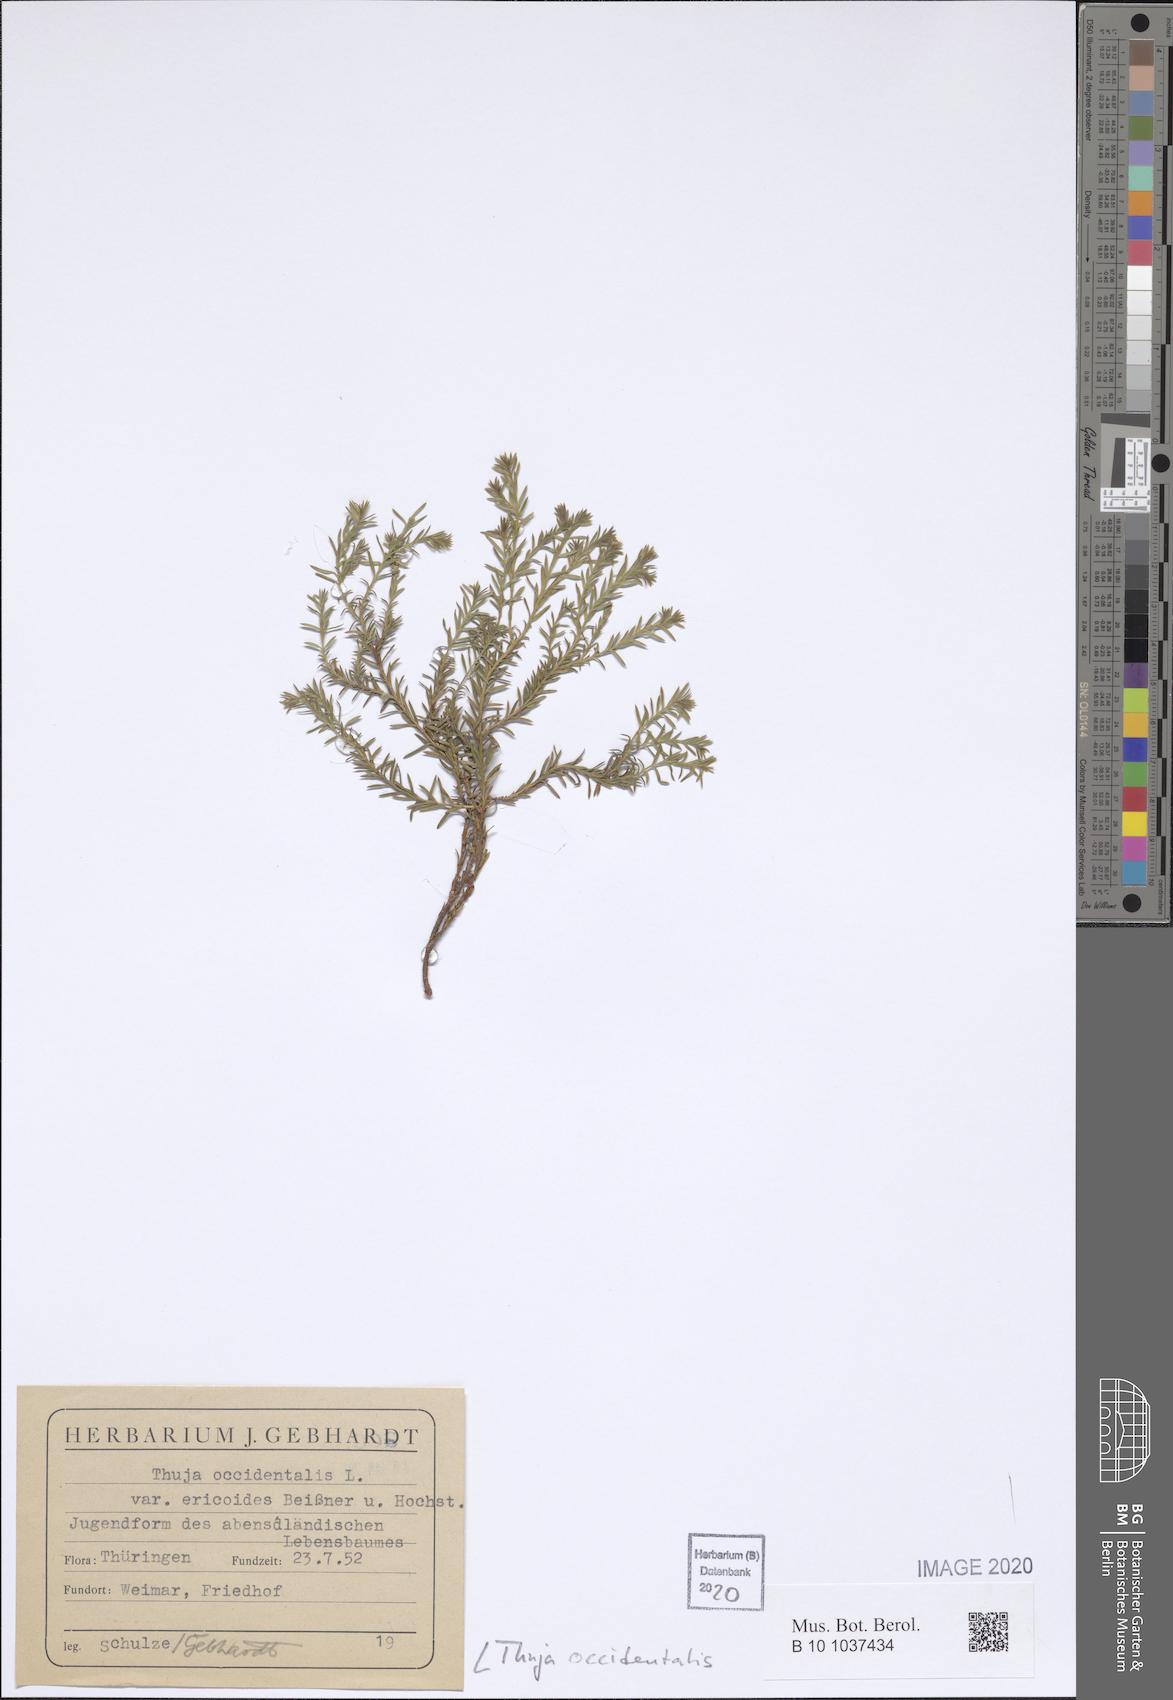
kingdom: Plantae
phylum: Tracheophyta
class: Pinopsida
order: Pinales
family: Cupressaceae
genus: Thuja
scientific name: Thuja occidentalis
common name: Northern white-cedar
